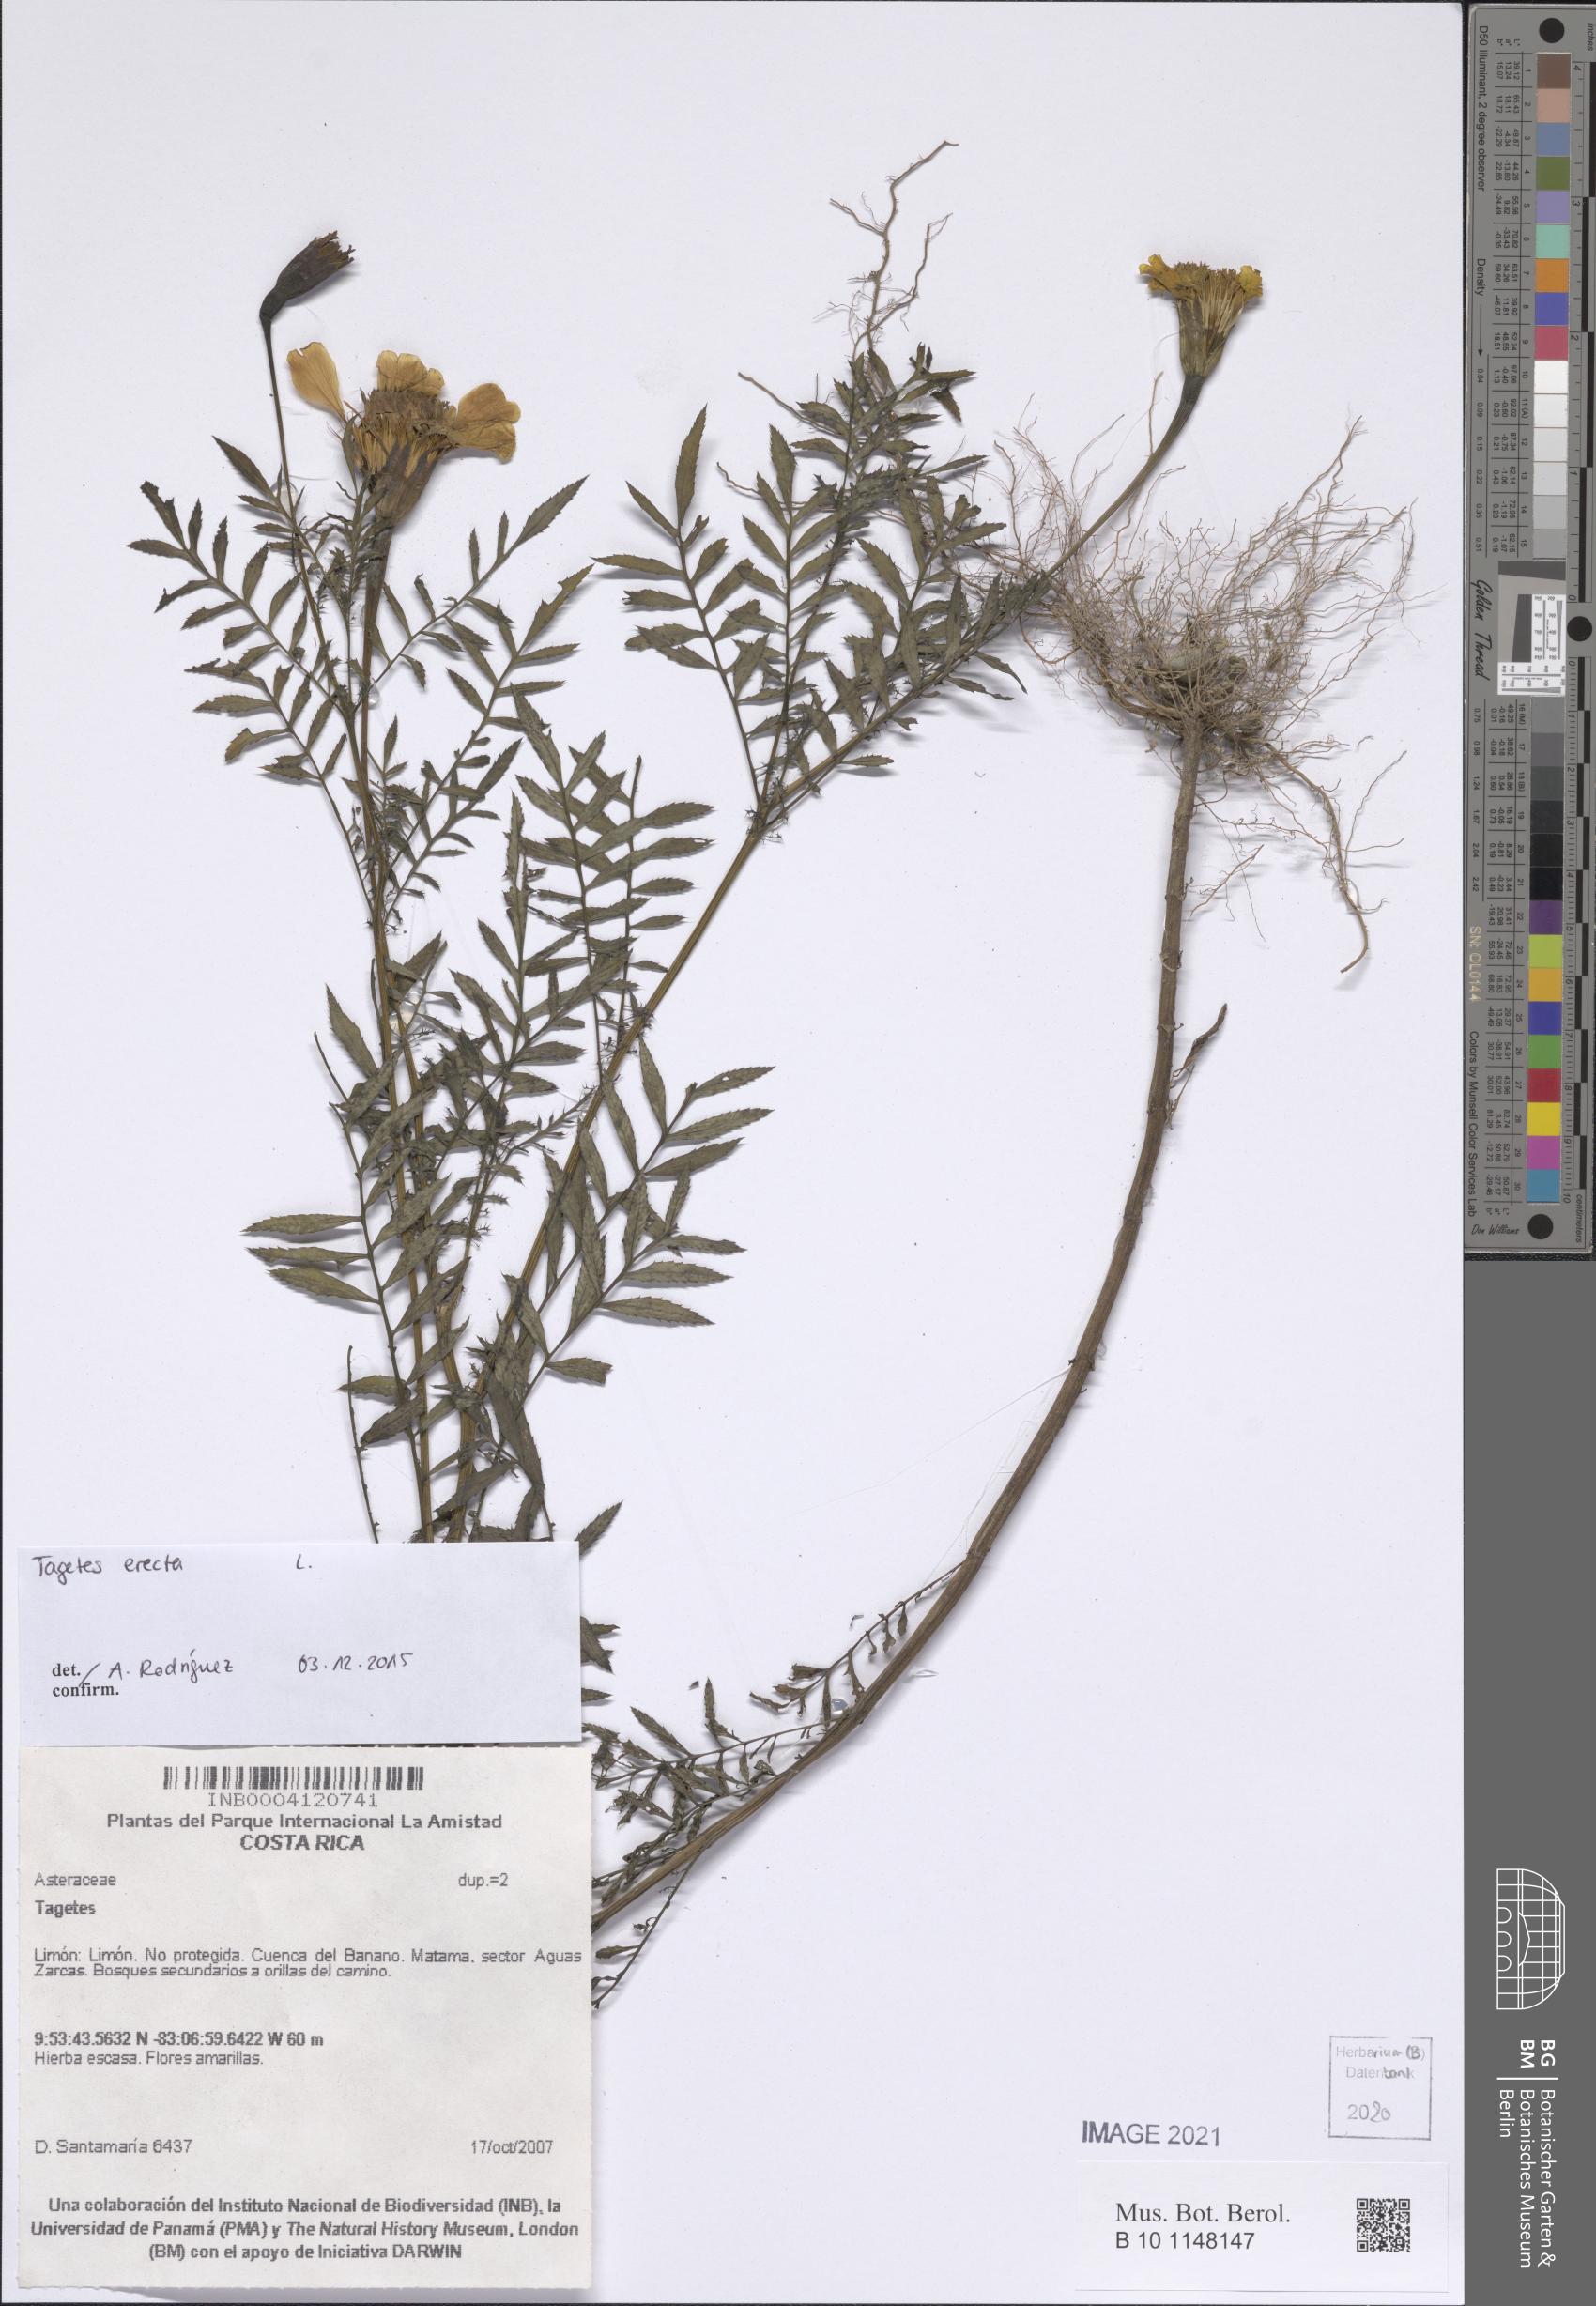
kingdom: Plantae
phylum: Tracheophyta
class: Magnoliopsida
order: Asterales
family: Asteraceae
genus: Tagetes
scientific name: Tagetes erecta
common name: African marigold
